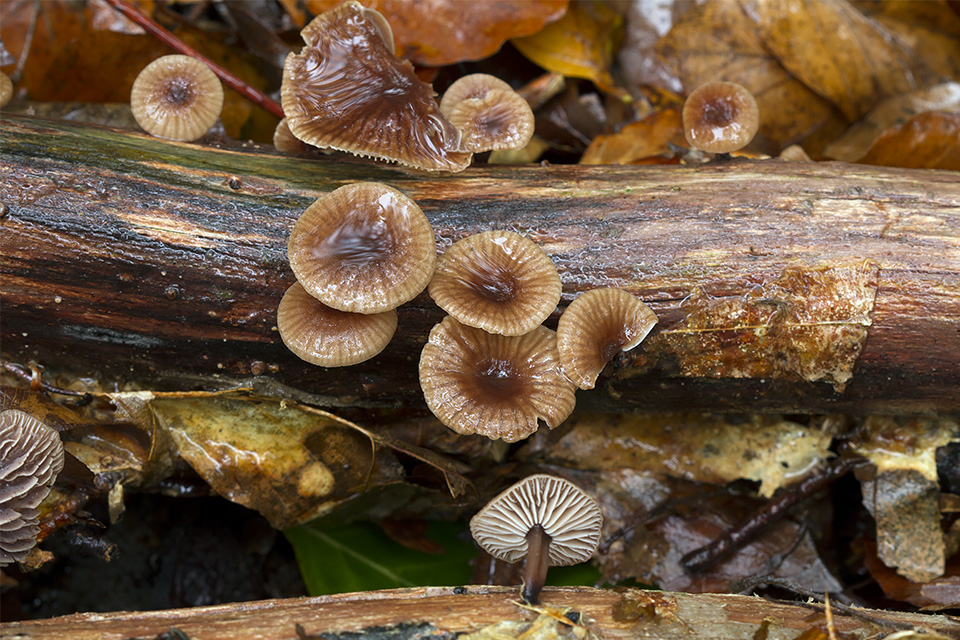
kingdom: Fungi
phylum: Basidiomycota
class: Agaricomycetes
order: Agaricales
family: Omphalotaceae
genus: Gymnopus
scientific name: Gymnopus foetidus
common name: stinkende fladhat
